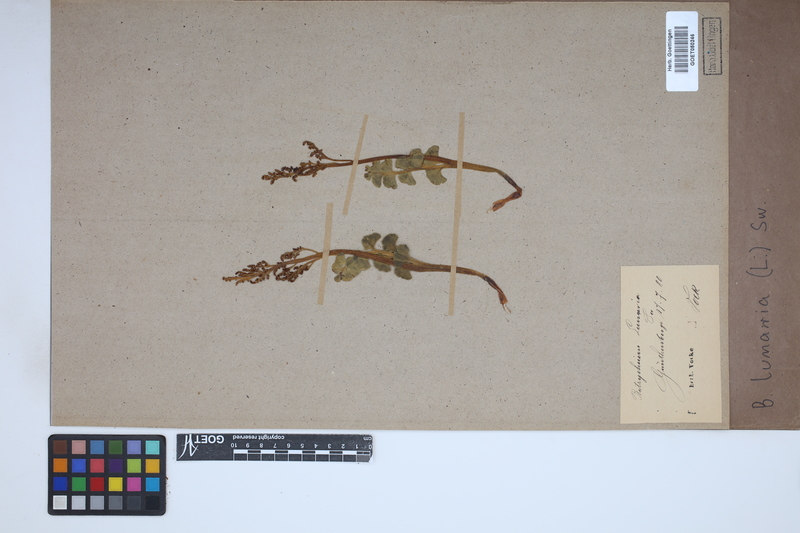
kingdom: Plantae
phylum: Tracheophyta
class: Polypodiopsida
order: Ophioglossales
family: Ophioglossaceae
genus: Botrychium
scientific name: Botrychium lunaria
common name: Moonwort
